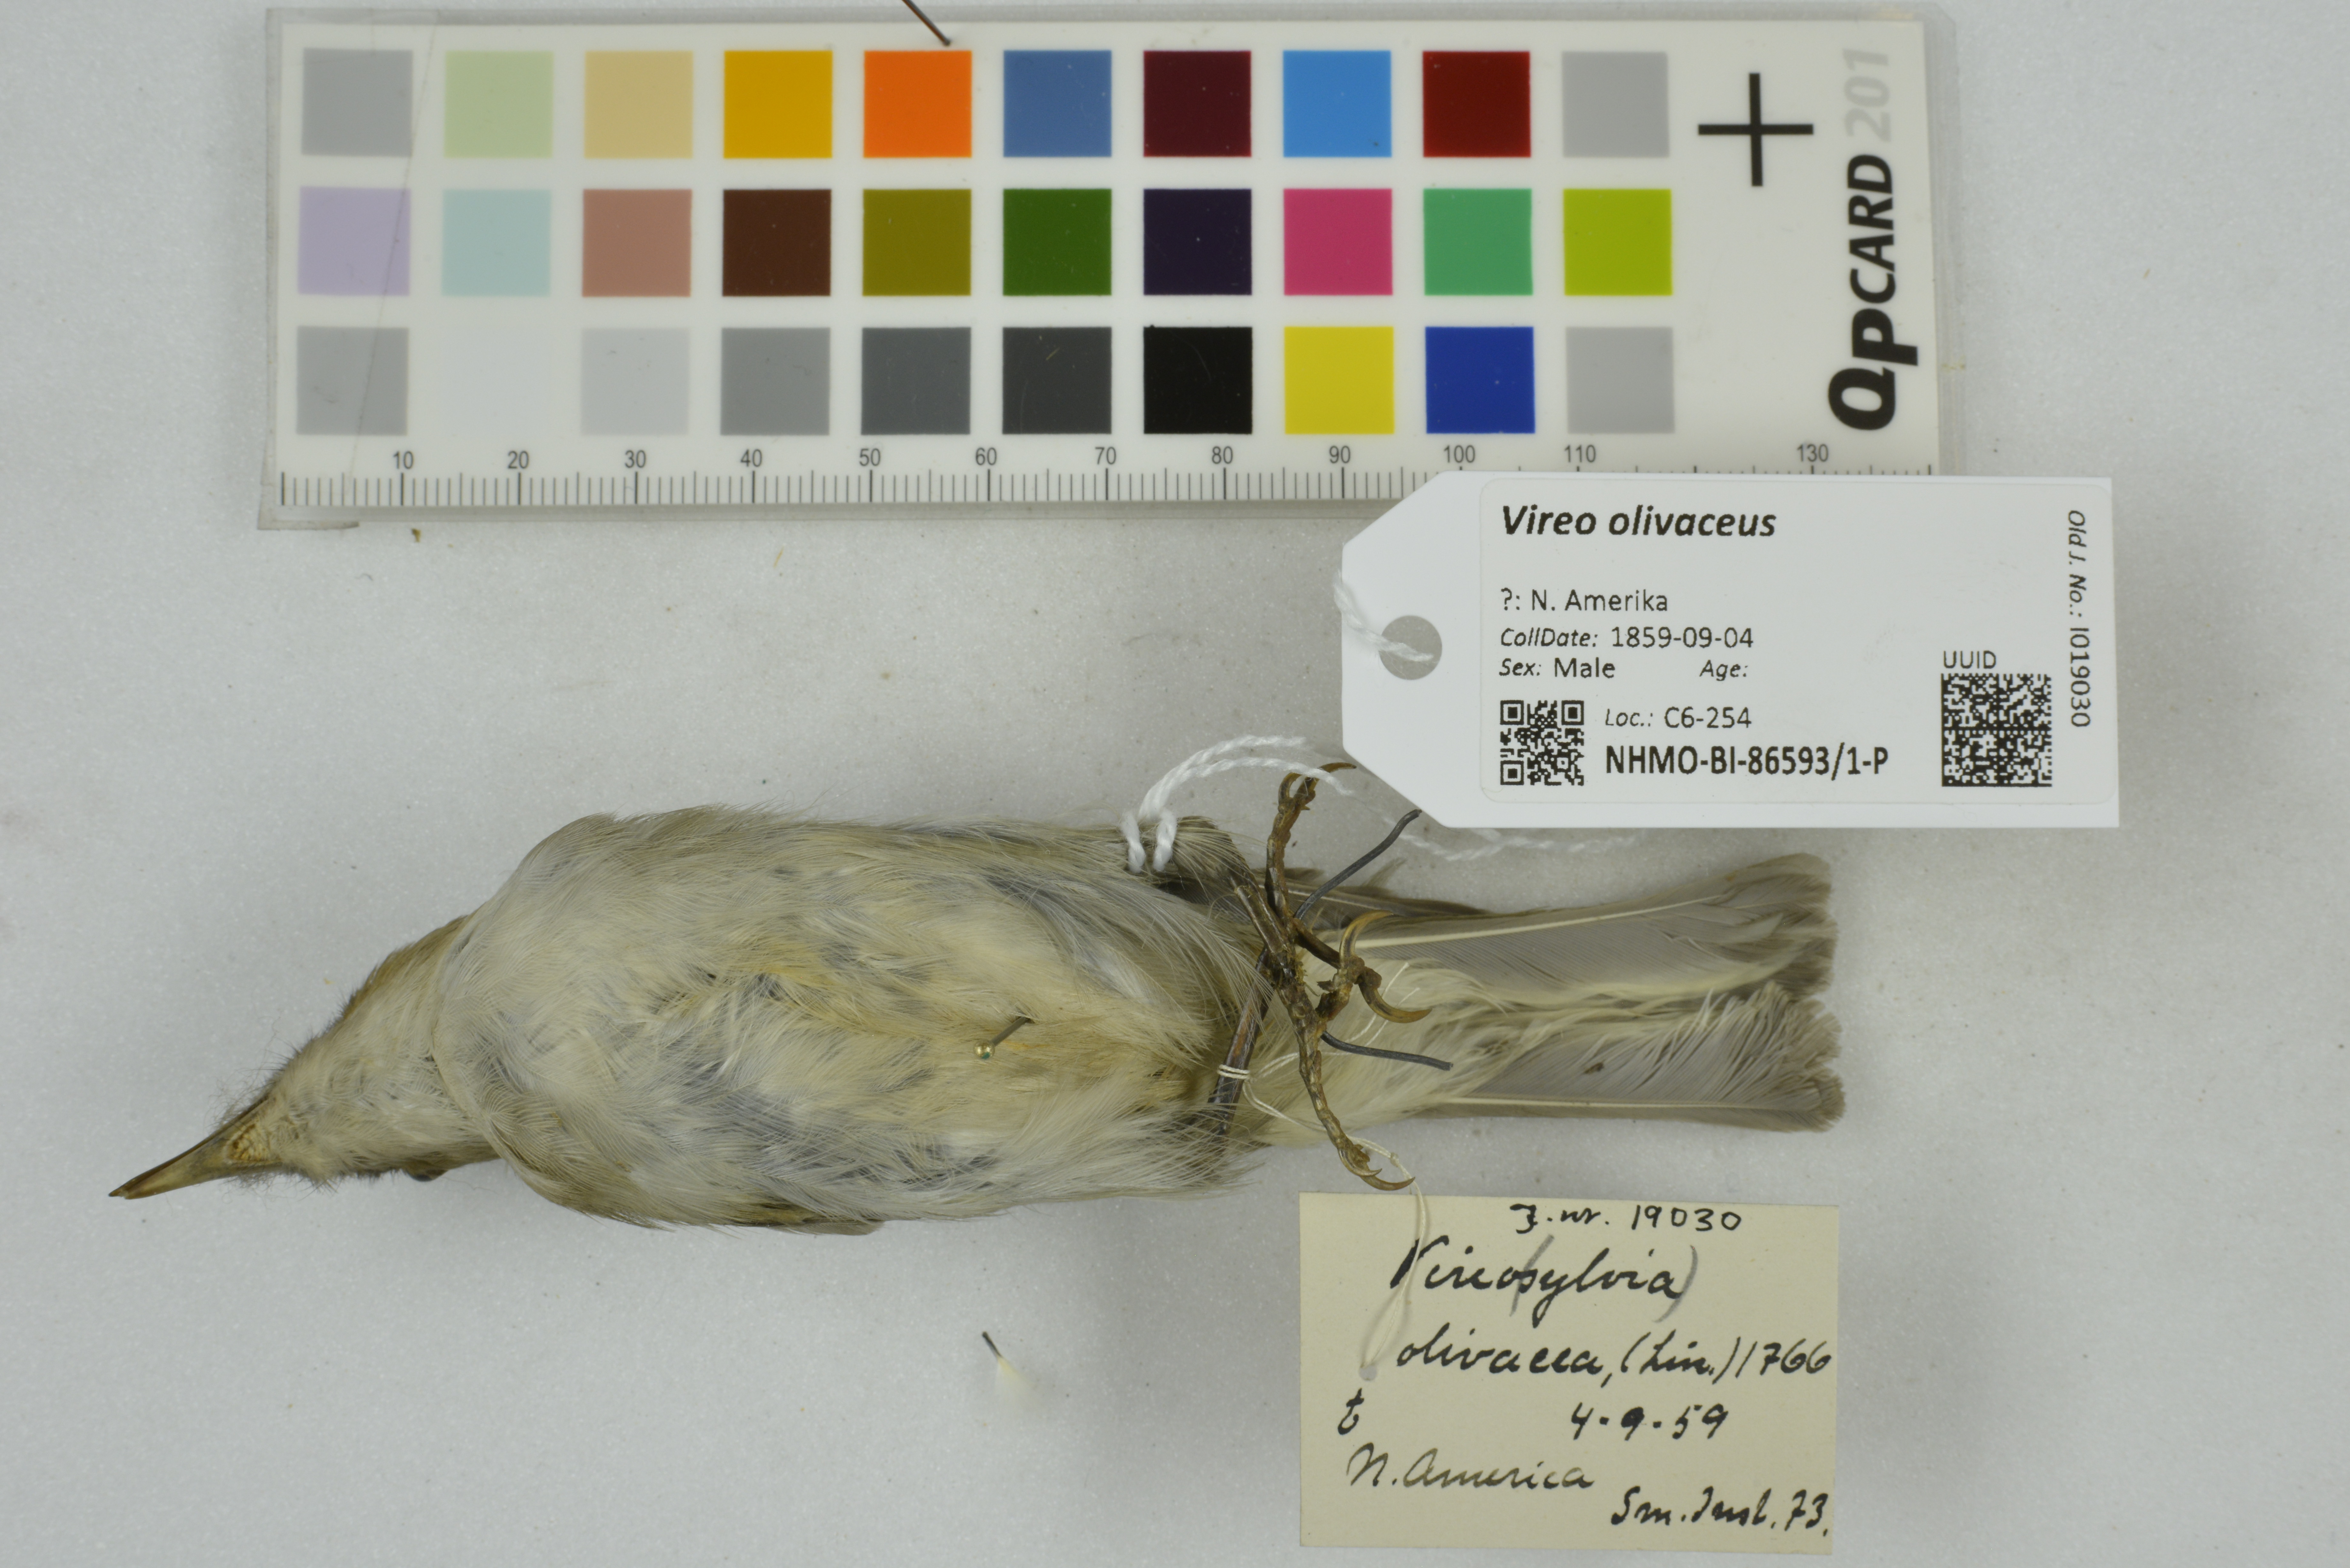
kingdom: Animalia
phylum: Chordata
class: Aves
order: Passeriformes
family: Vireonidae
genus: Vireo
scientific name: Vireo olivaceus
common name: Red-eyed vireo
